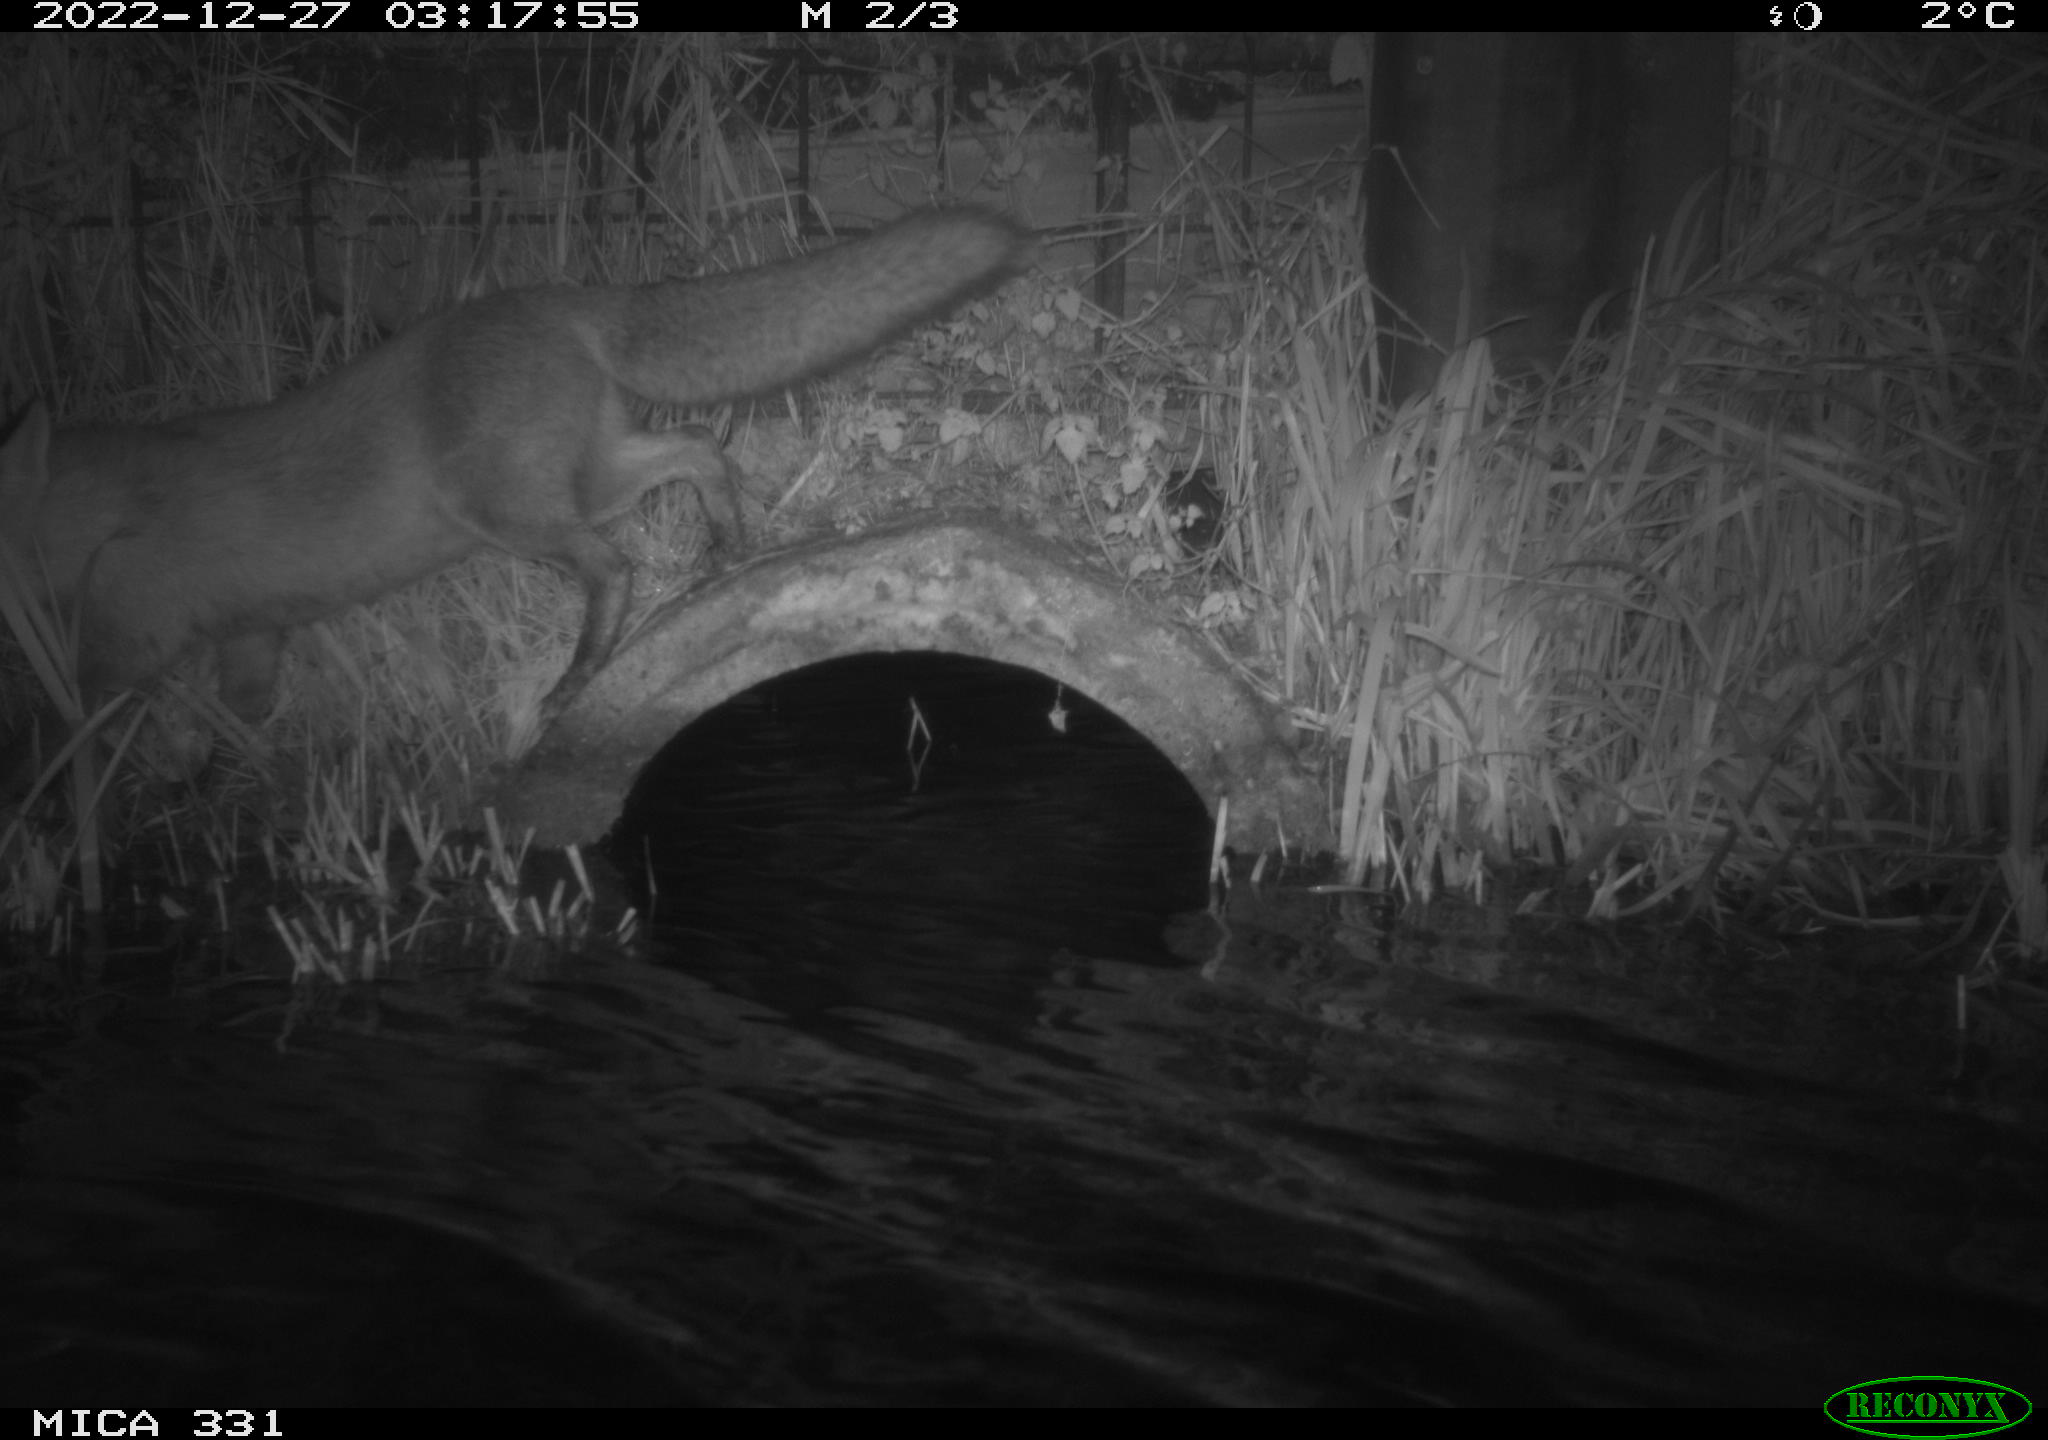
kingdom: Animalia
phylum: Chordata
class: Mammalia
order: Carnivora
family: Canidae
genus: Vulpes
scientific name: Vulpes vulpes
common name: Red fox
